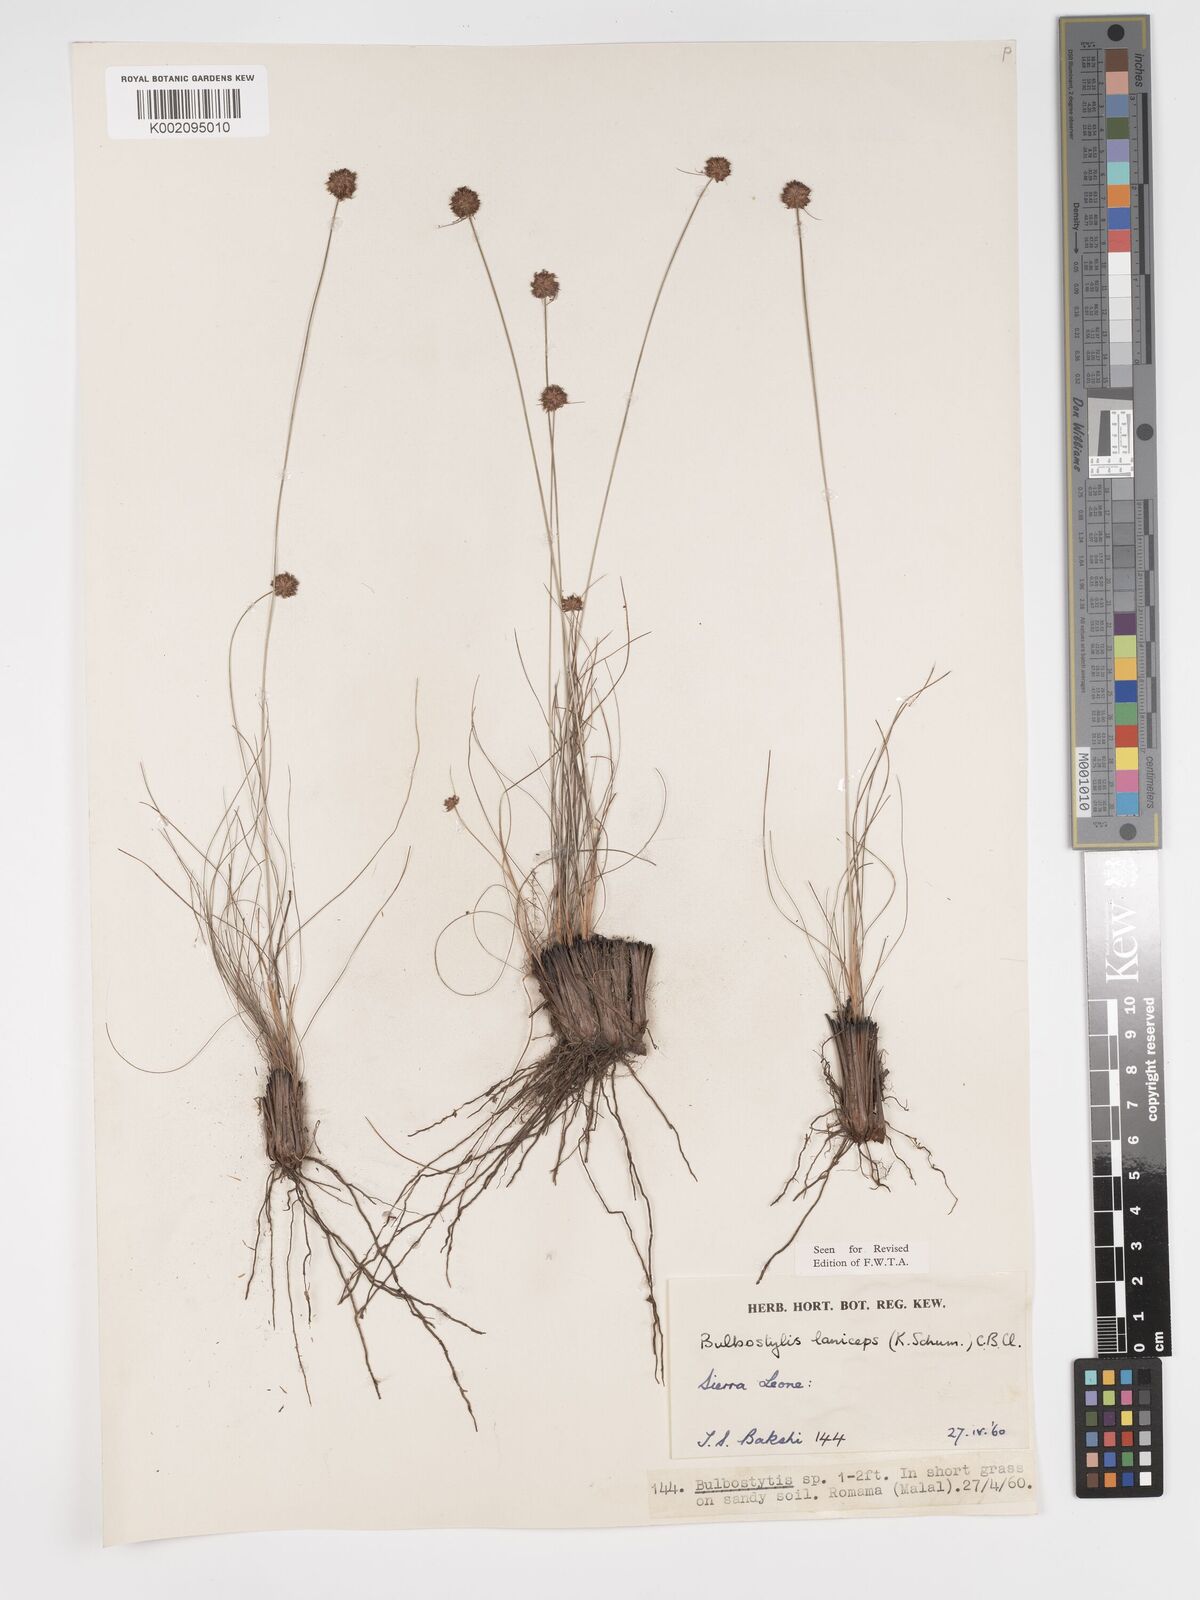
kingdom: Plantae
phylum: Tracheophyta
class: Liliopsida
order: Poales
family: Cyperaceae
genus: Bulbostylis
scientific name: Bulbostylis laniceps
